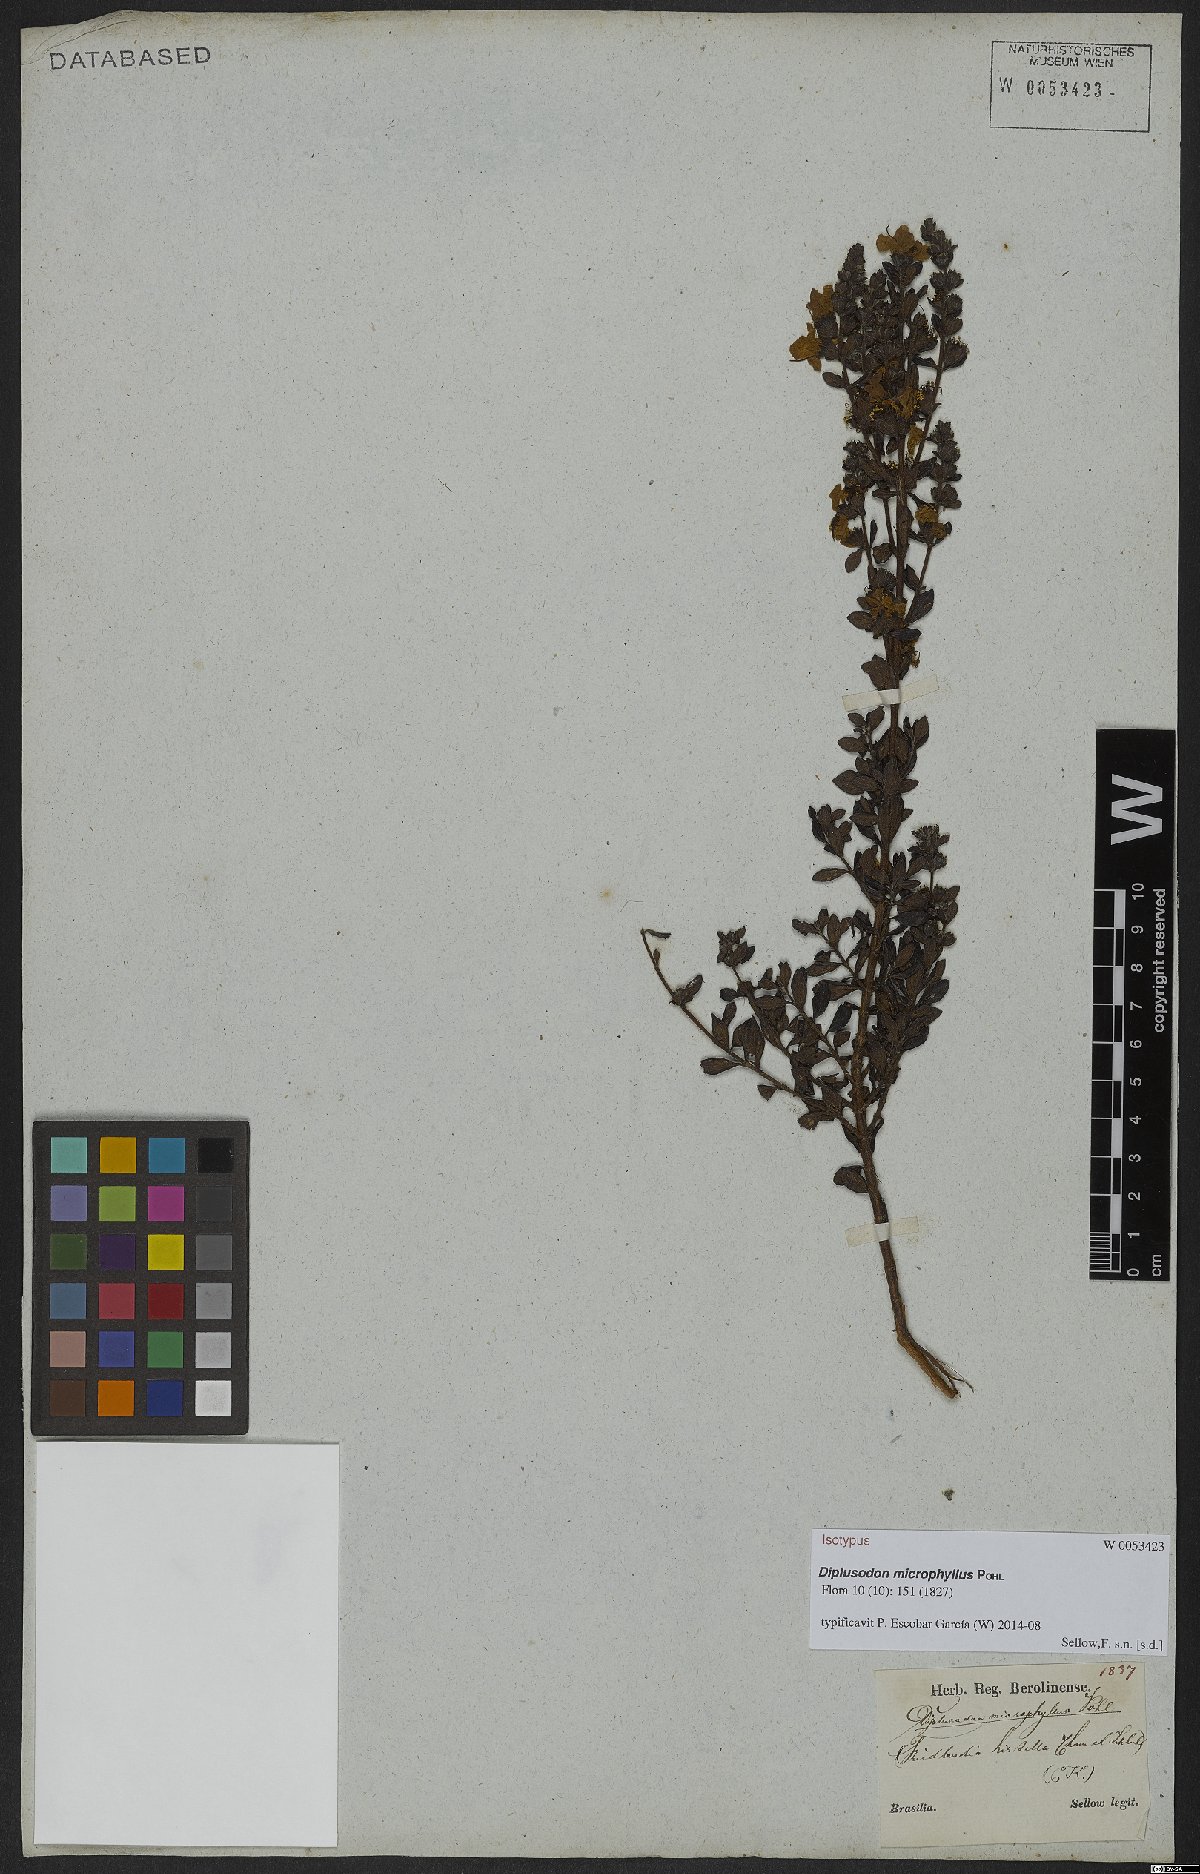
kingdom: Plantae
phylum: Tracheophyta
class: Magnoliopsida
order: Myrtales
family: Lythraceae
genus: Diplusodon
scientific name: Diplusodon microphyllus
